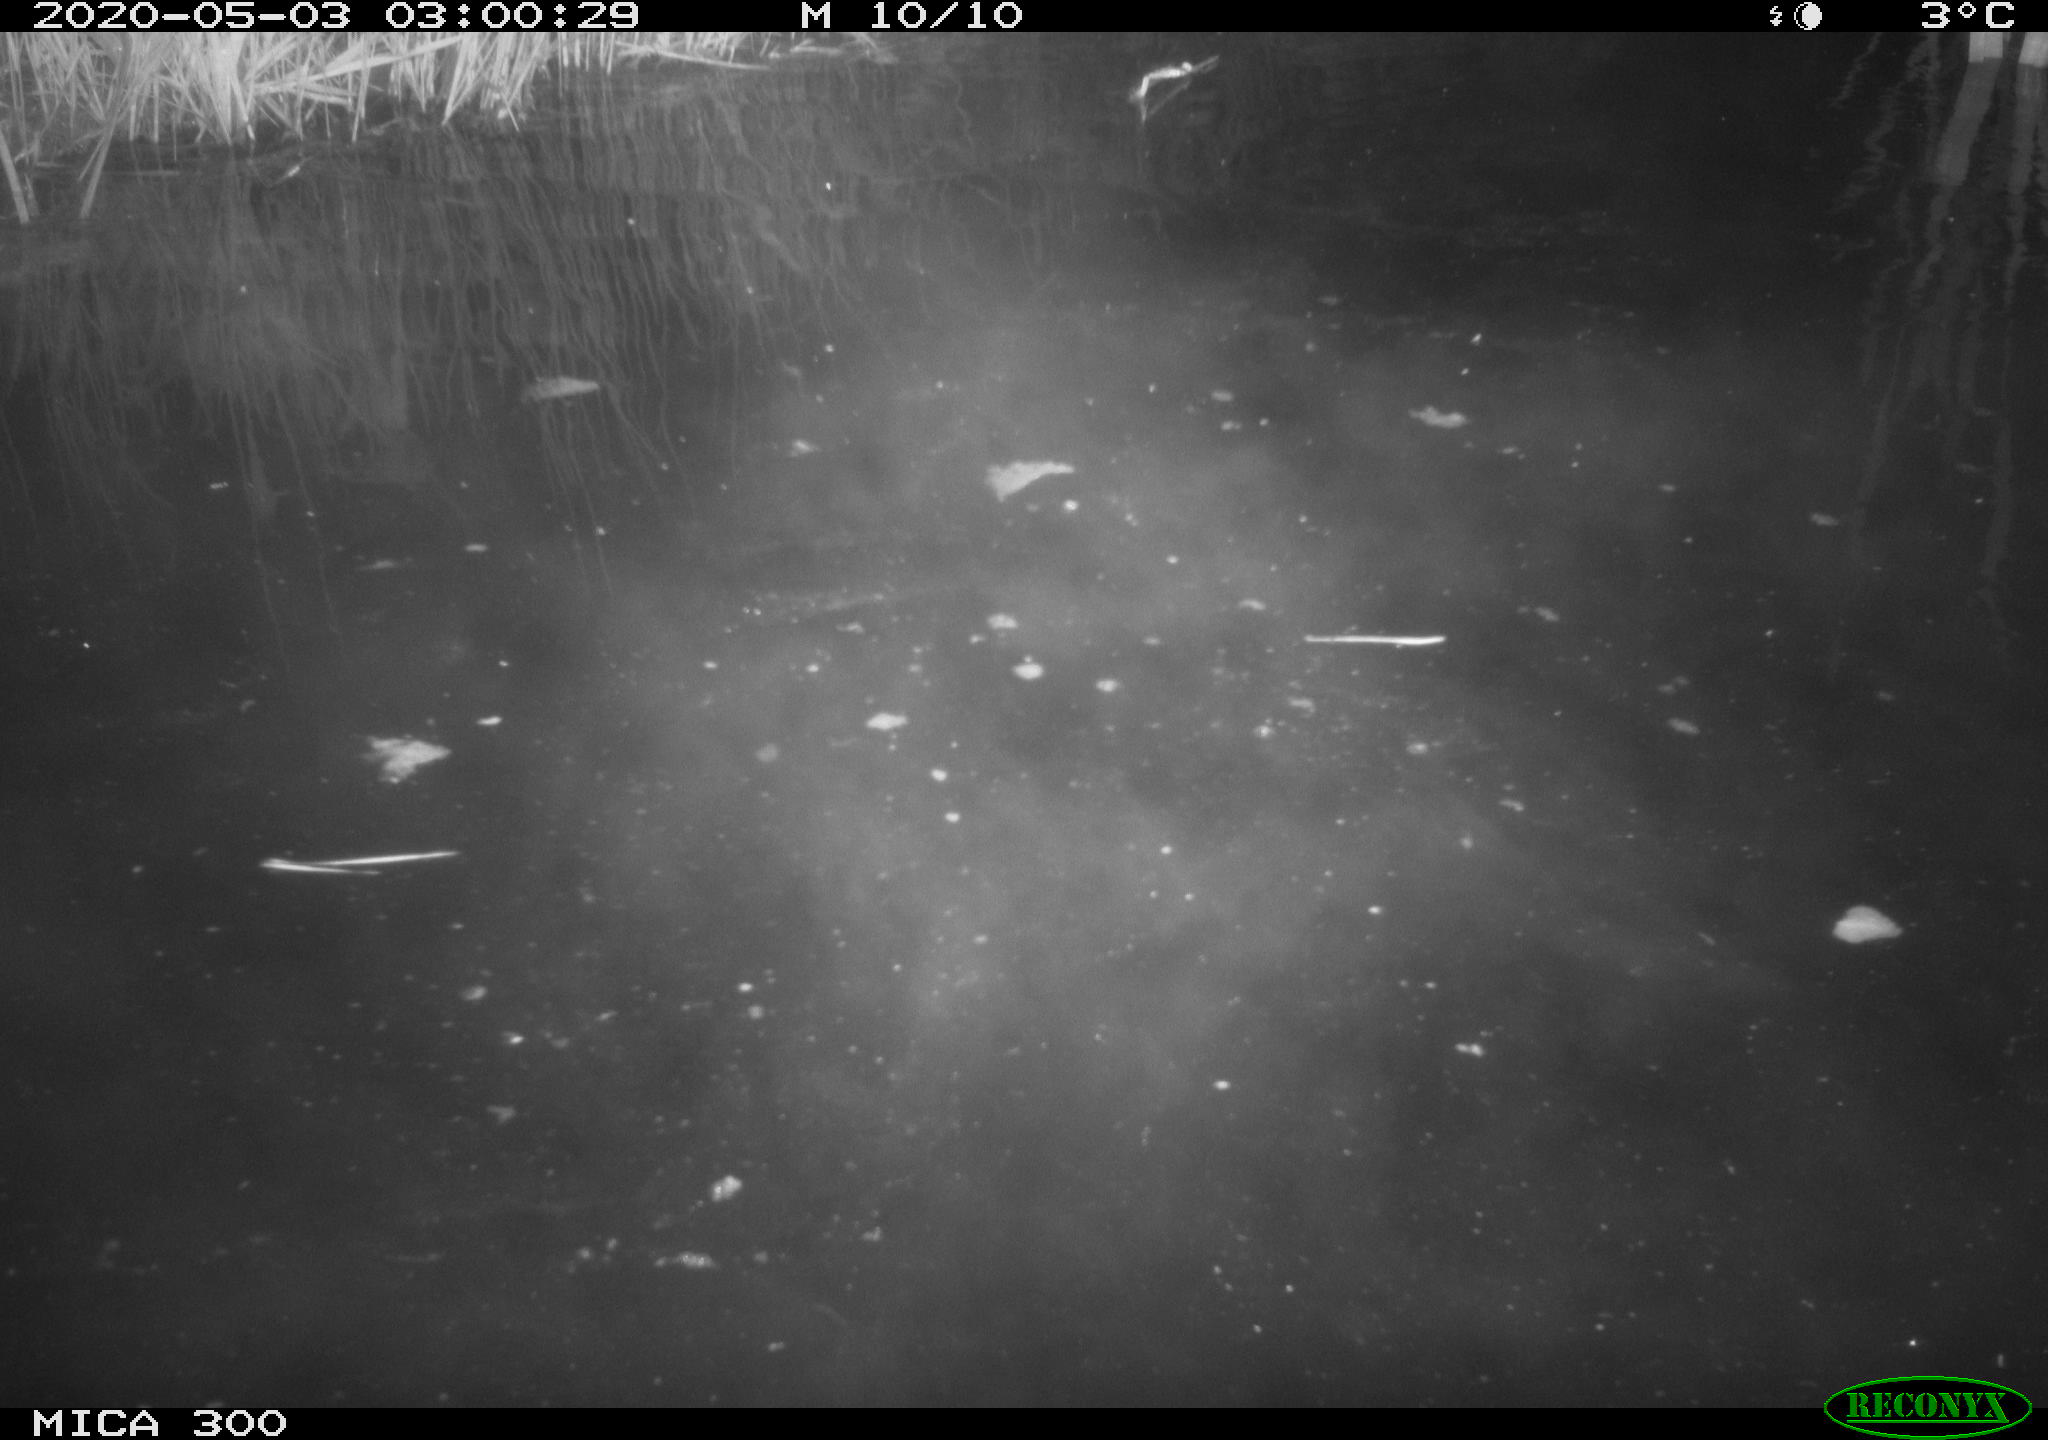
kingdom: Animalia
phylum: Chordata
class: Mammalia
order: Rodentia
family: Castoridae
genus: Castor
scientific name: Castor fiber
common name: Eurasian beaver
